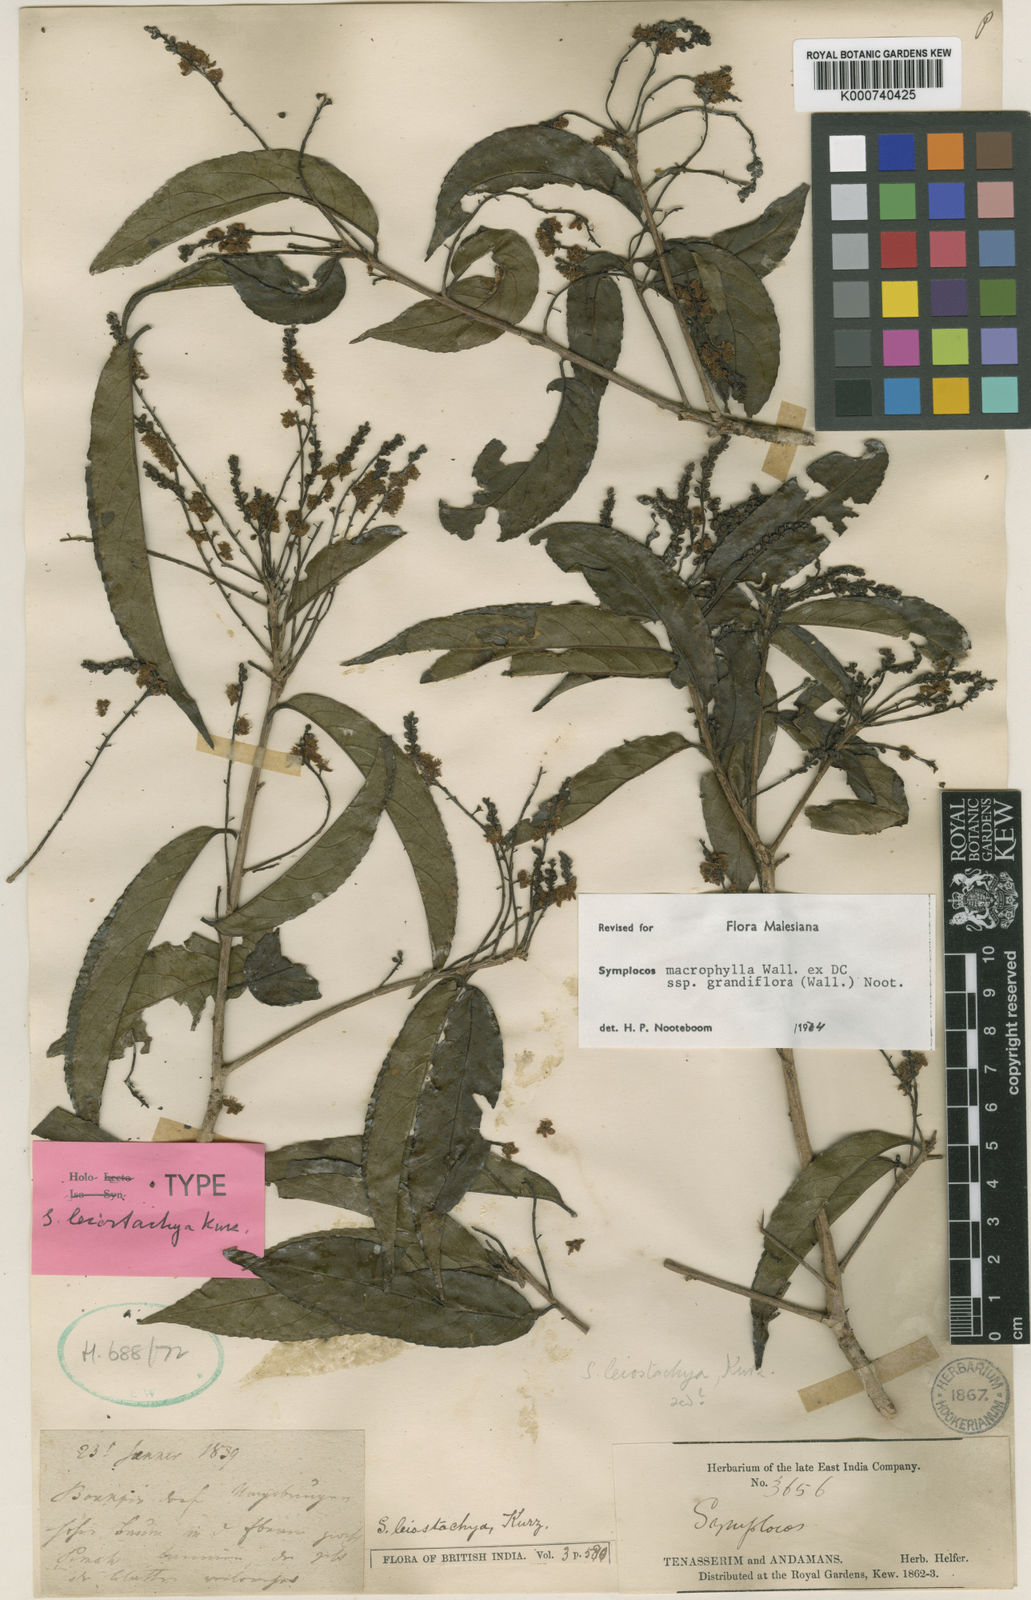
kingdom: Plantae
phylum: Tracheophyta
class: Magnoliopsida
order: Ericales
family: Symplocaceae
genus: Symplocos
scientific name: Symplocos macrophylla
